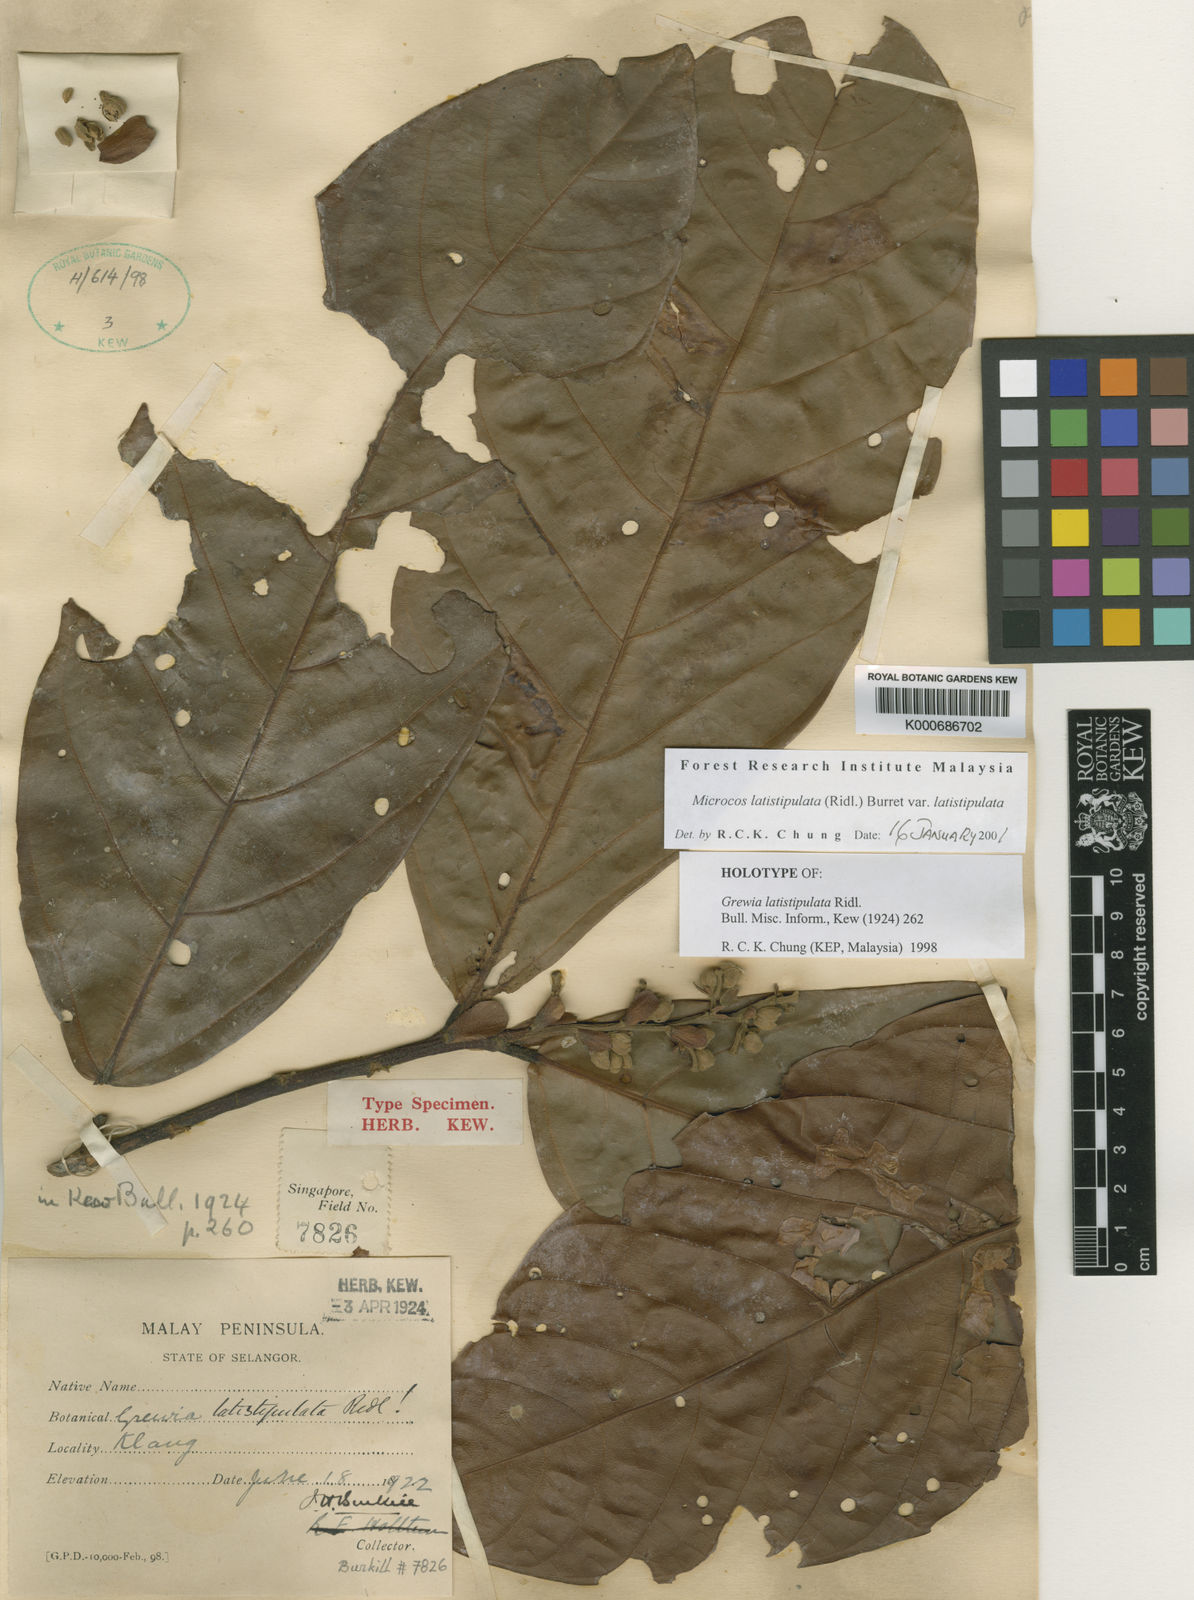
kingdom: Plantae
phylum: Tracheophyta
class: Magnoliopsida
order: Malvales
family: Malvaceae
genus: Microcos
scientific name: Microcos latistipulata
